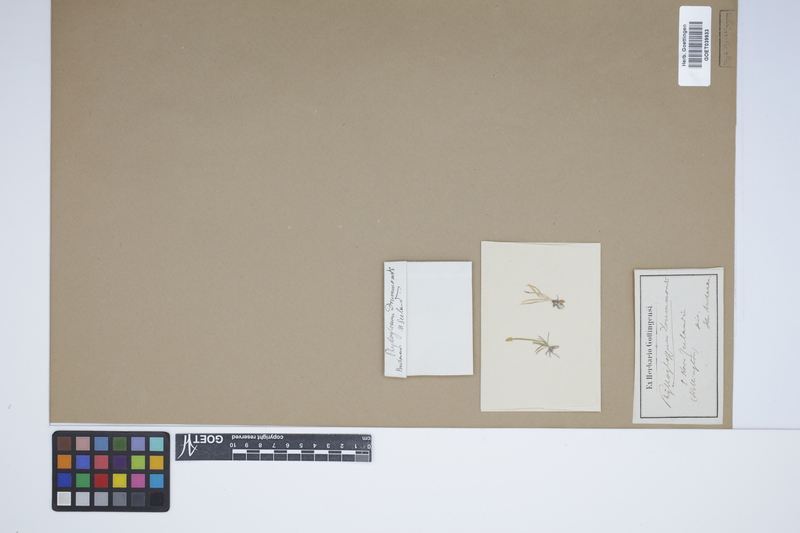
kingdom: Plantae
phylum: Tracheophyta
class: Lycopodiopsida
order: Lycopodiales
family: Lycopodiaceae
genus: Phylloglossum
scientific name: Phylloglossum drummondii
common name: Pigmy-club-moss
